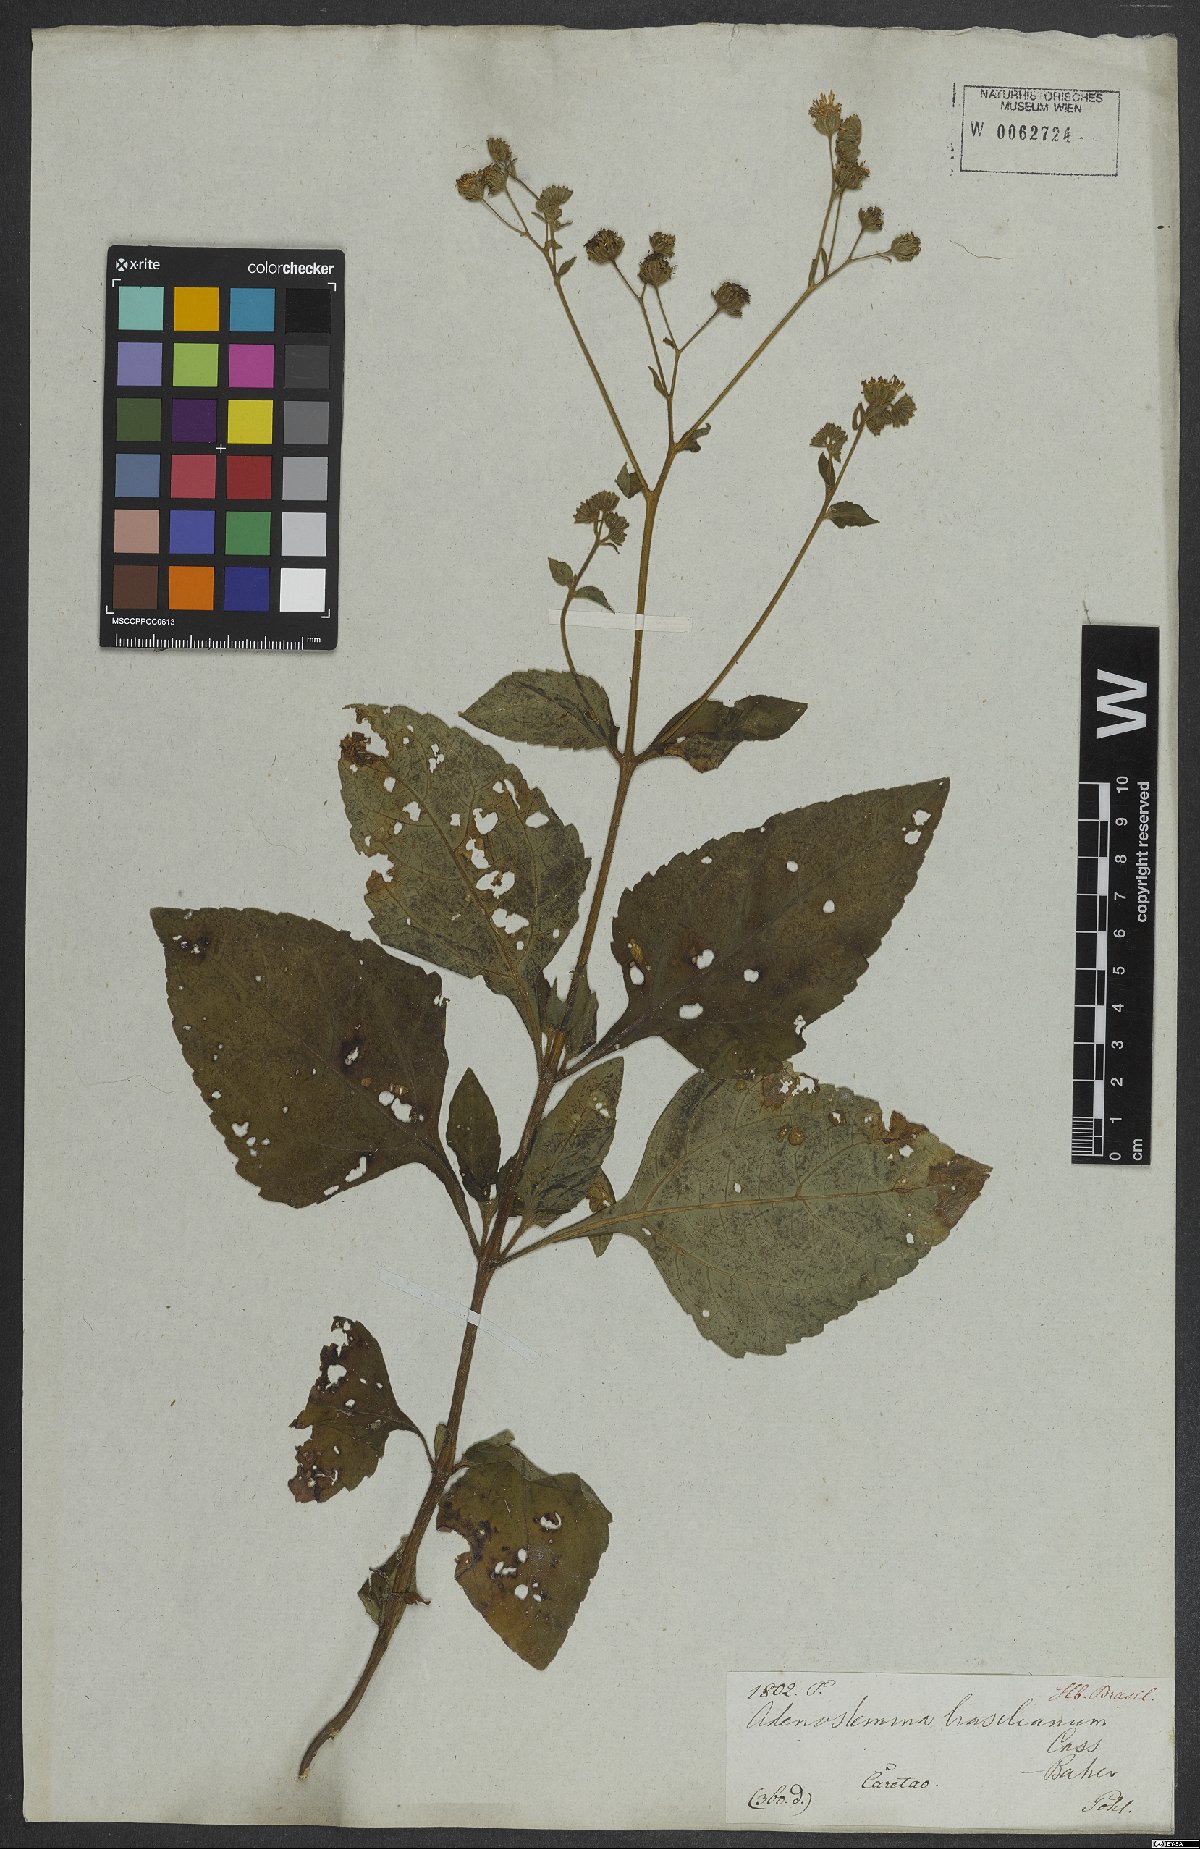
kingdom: Plantae
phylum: Tracheophyta
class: Magnoliopsida
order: Asterales
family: Asteraceae
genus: Adenostemma
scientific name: Adenostemma brasilianum
